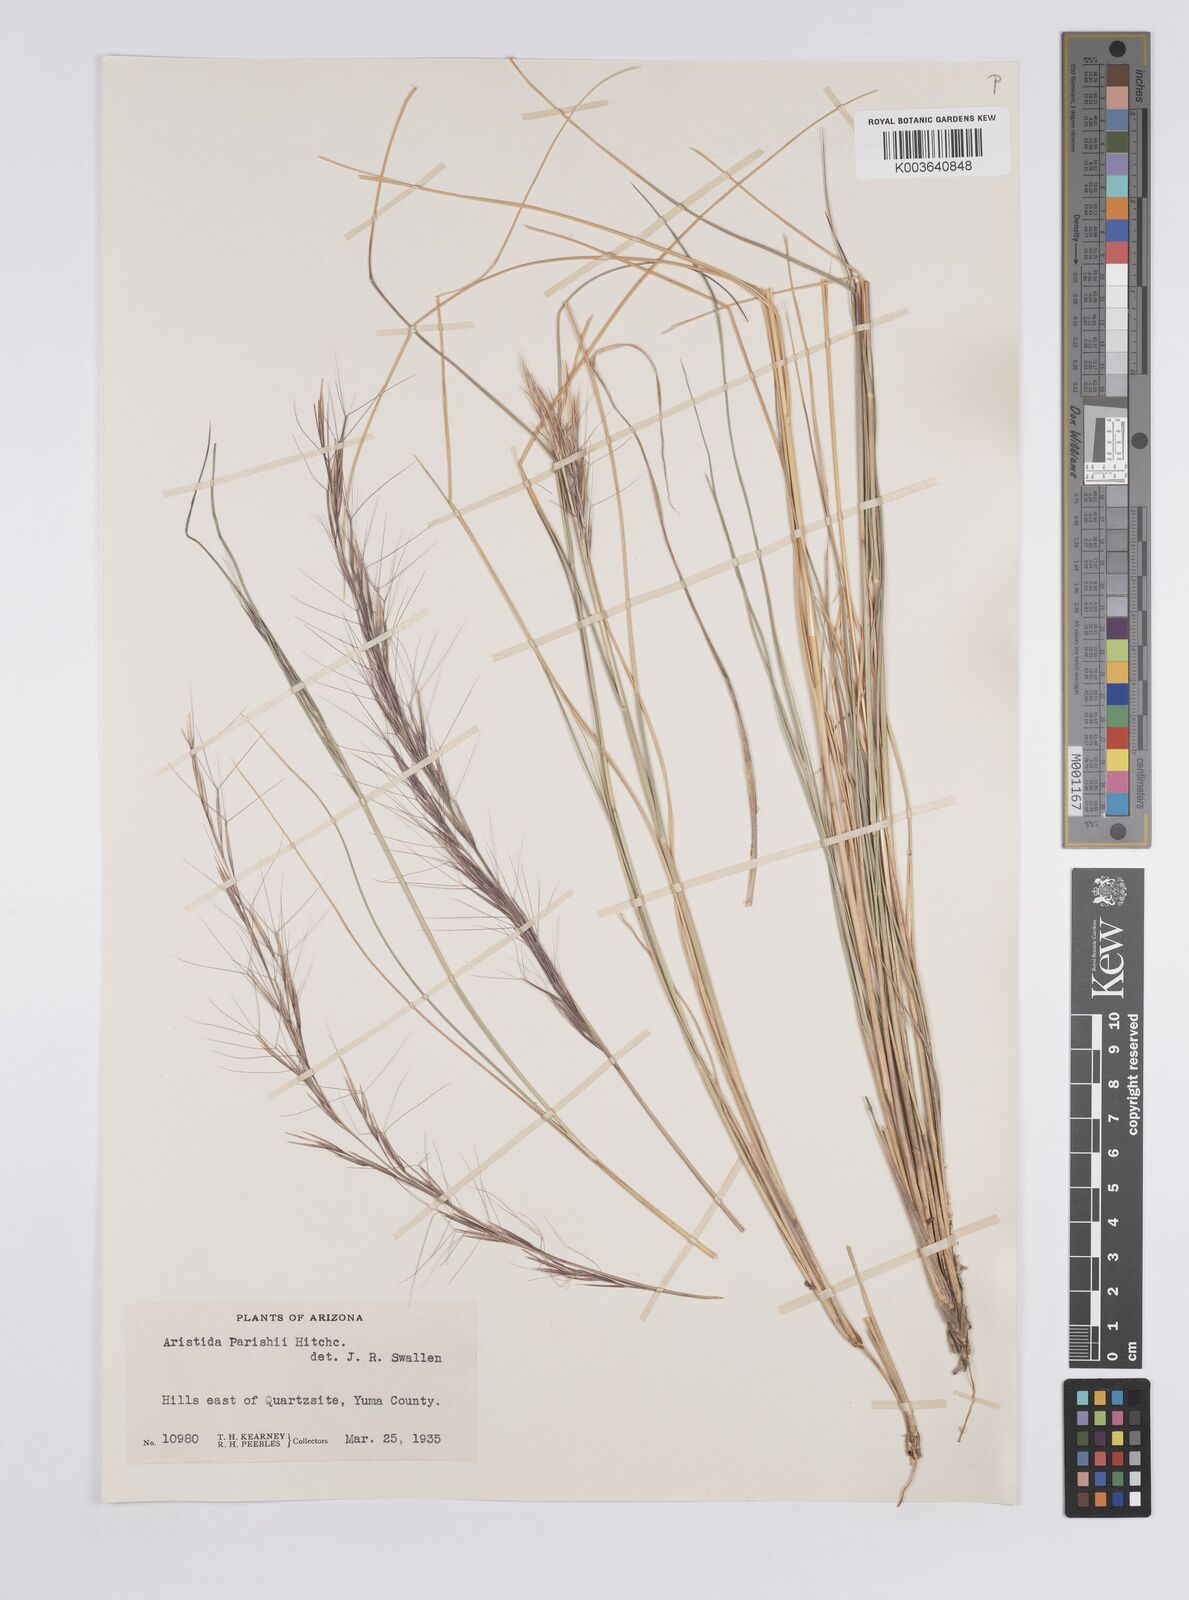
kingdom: Plantae
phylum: Tracheophyta
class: Liliopsida
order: Poales
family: Poaceae
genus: Aristida
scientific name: Aristida purpurea
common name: Purple threeawn
